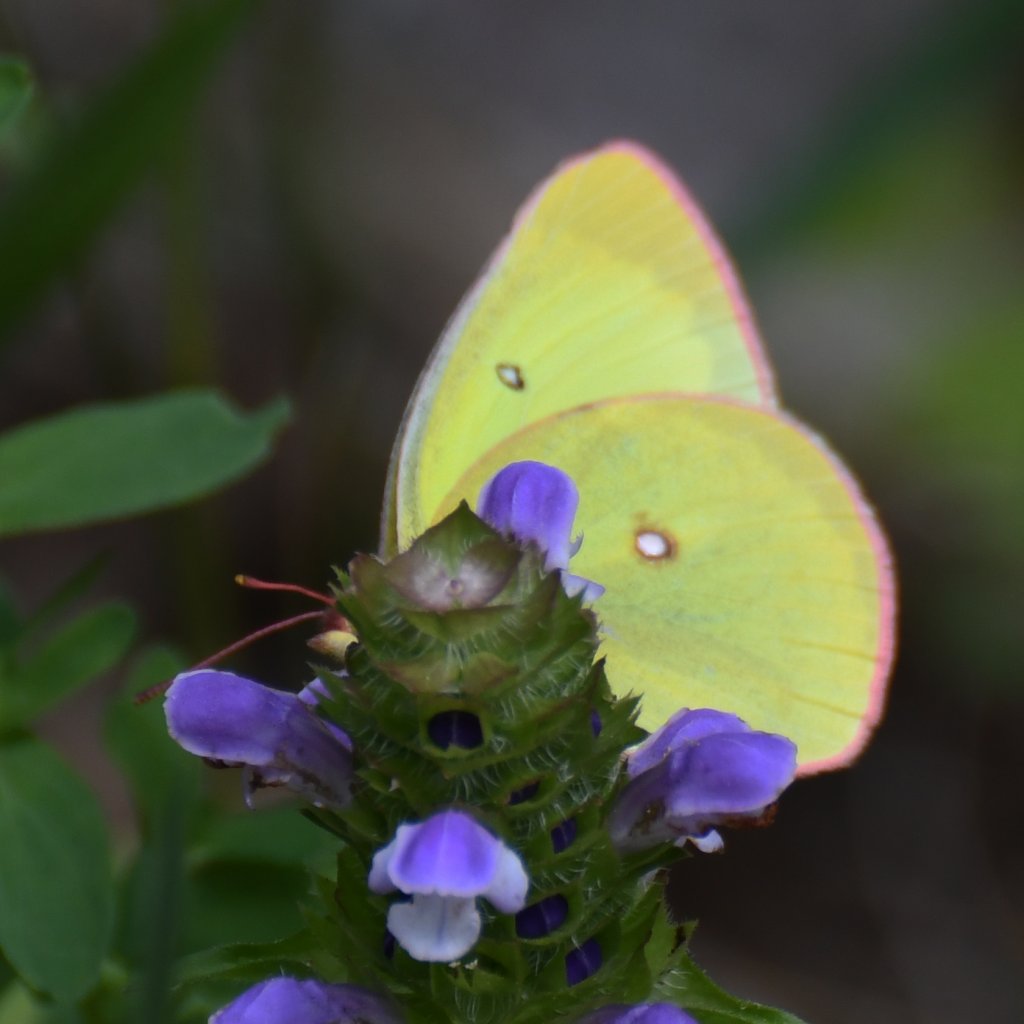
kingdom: Animalia
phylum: Arthropoda
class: Insecta
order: Lepidoptera
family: Pieridae
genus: Colias
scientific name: Colias interior
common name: Pink-edged Sulphur
